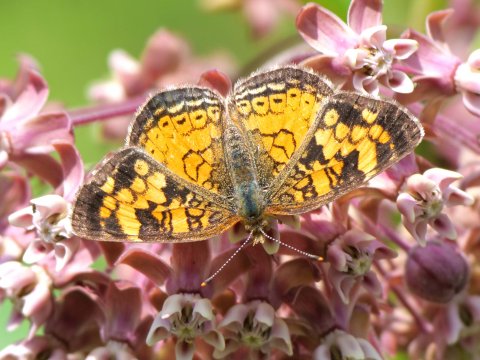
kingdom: Animalia
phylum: Arthropoda
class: Insecta
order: Lepidoptera
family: Nymphalidae
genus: Phyciodes
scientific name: Phyciodes
